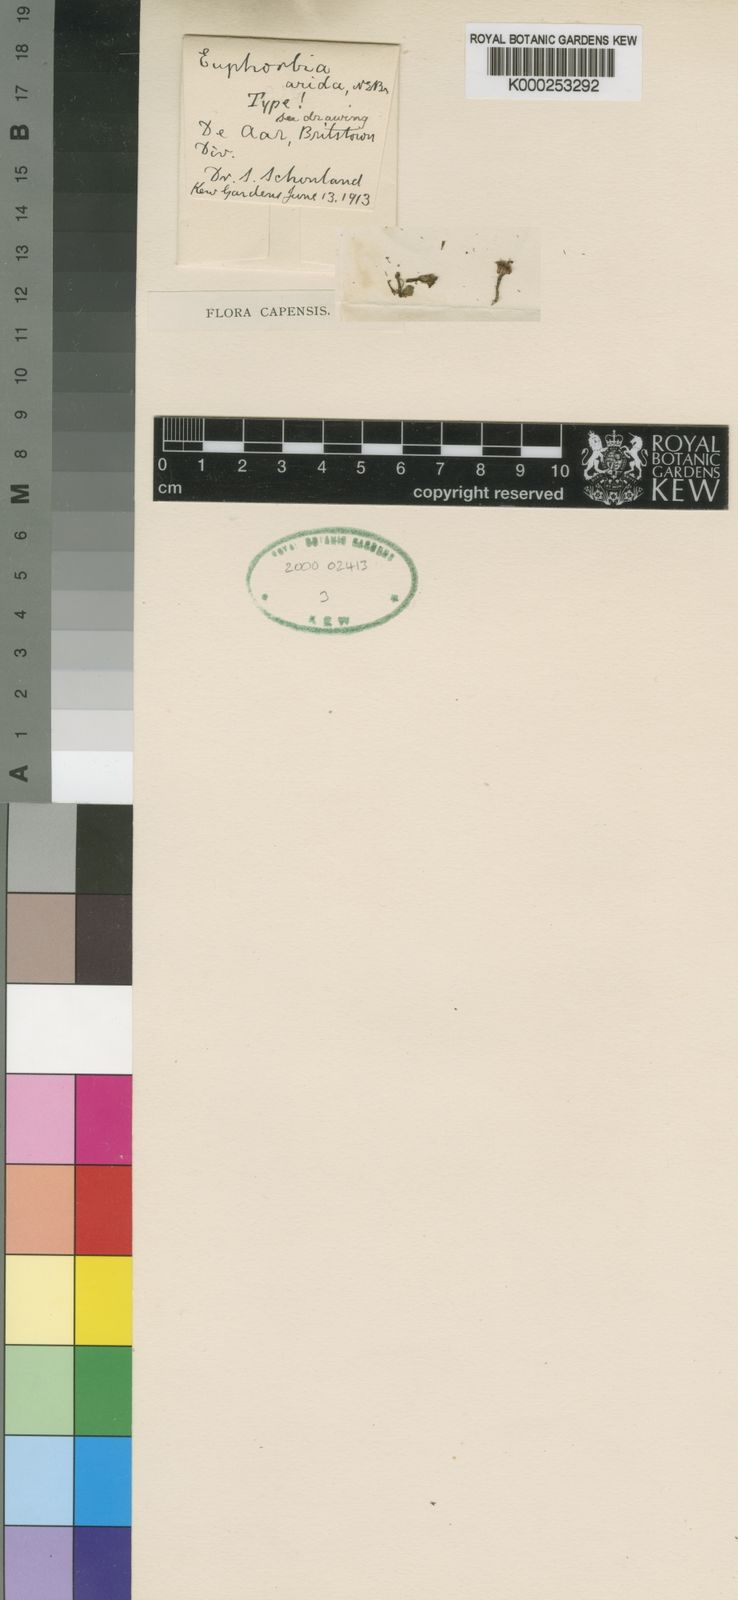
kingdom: Plantae
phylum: Tracheophyta
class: Magnoliopsida
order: Malpighiales
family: Euphorbiaceae
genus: Euphorbia
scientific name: Euphorbia arida
